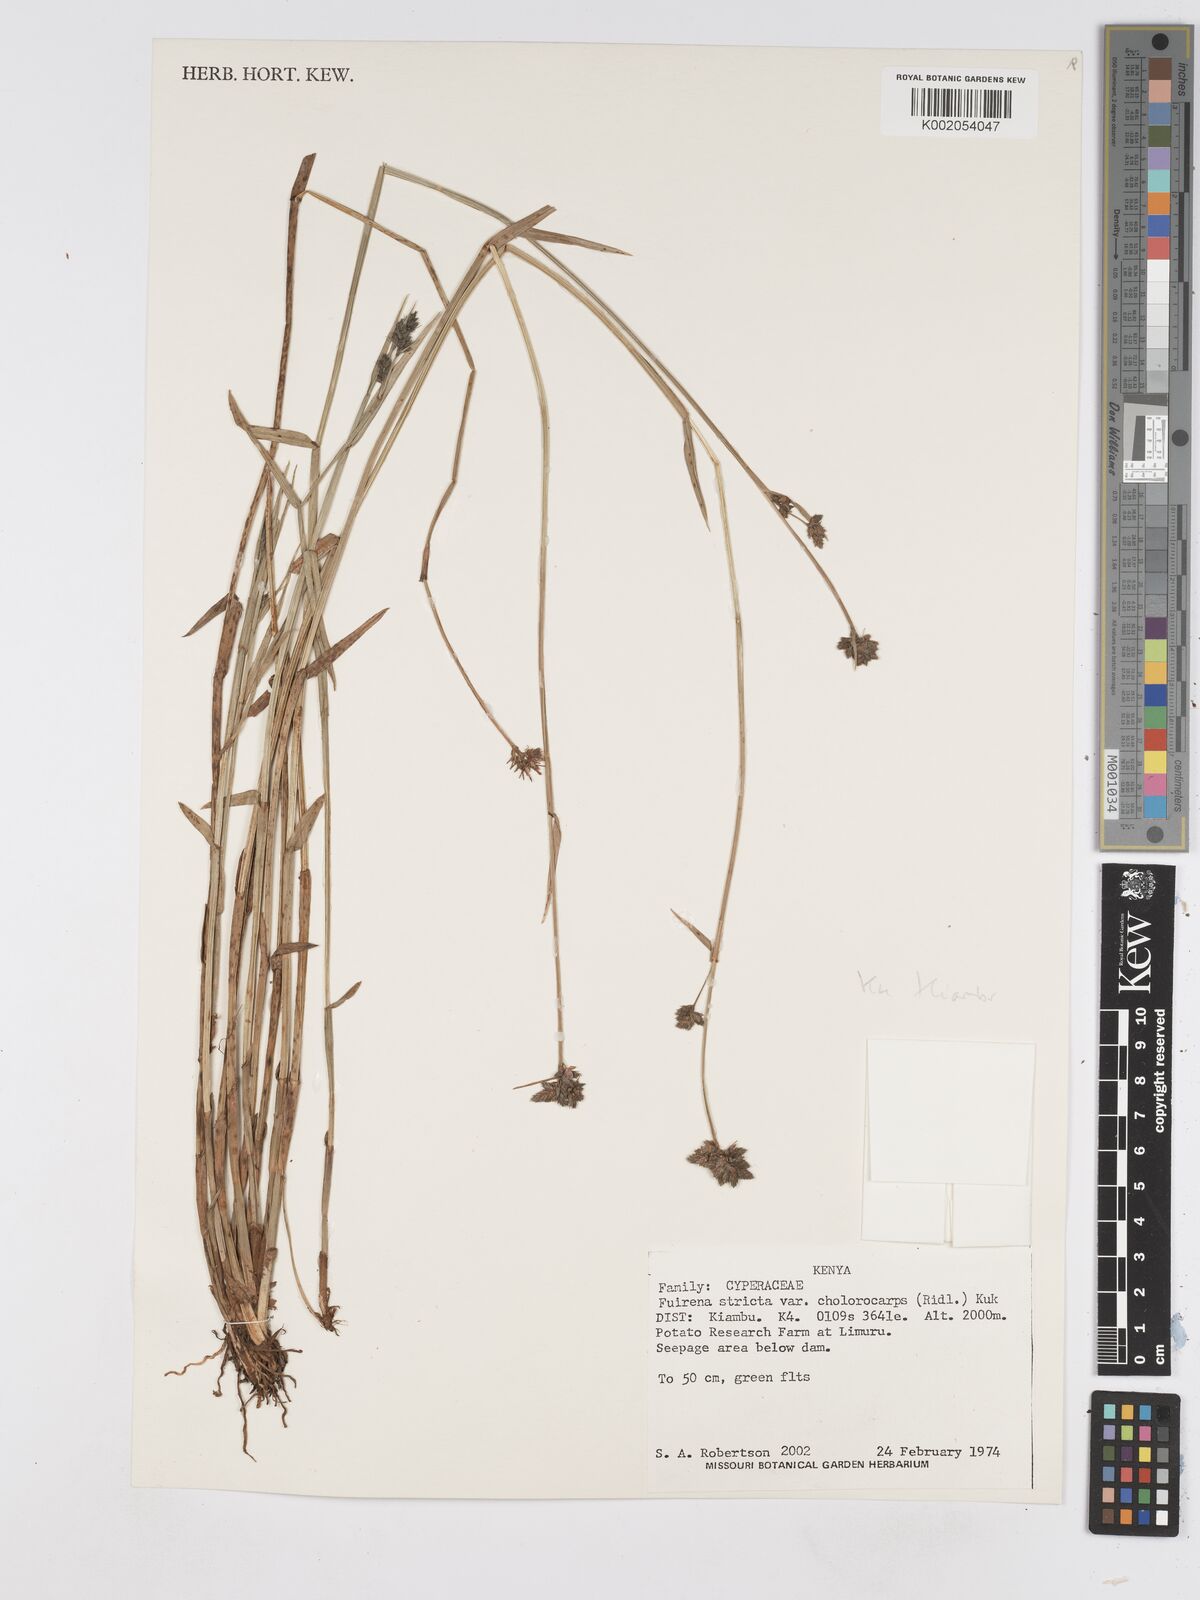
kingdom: Plantae
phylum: Tracheophyta
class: Liliopsida
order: Poales
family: Cyperaceae
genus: Fuirena
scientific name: Fuirena stricta
